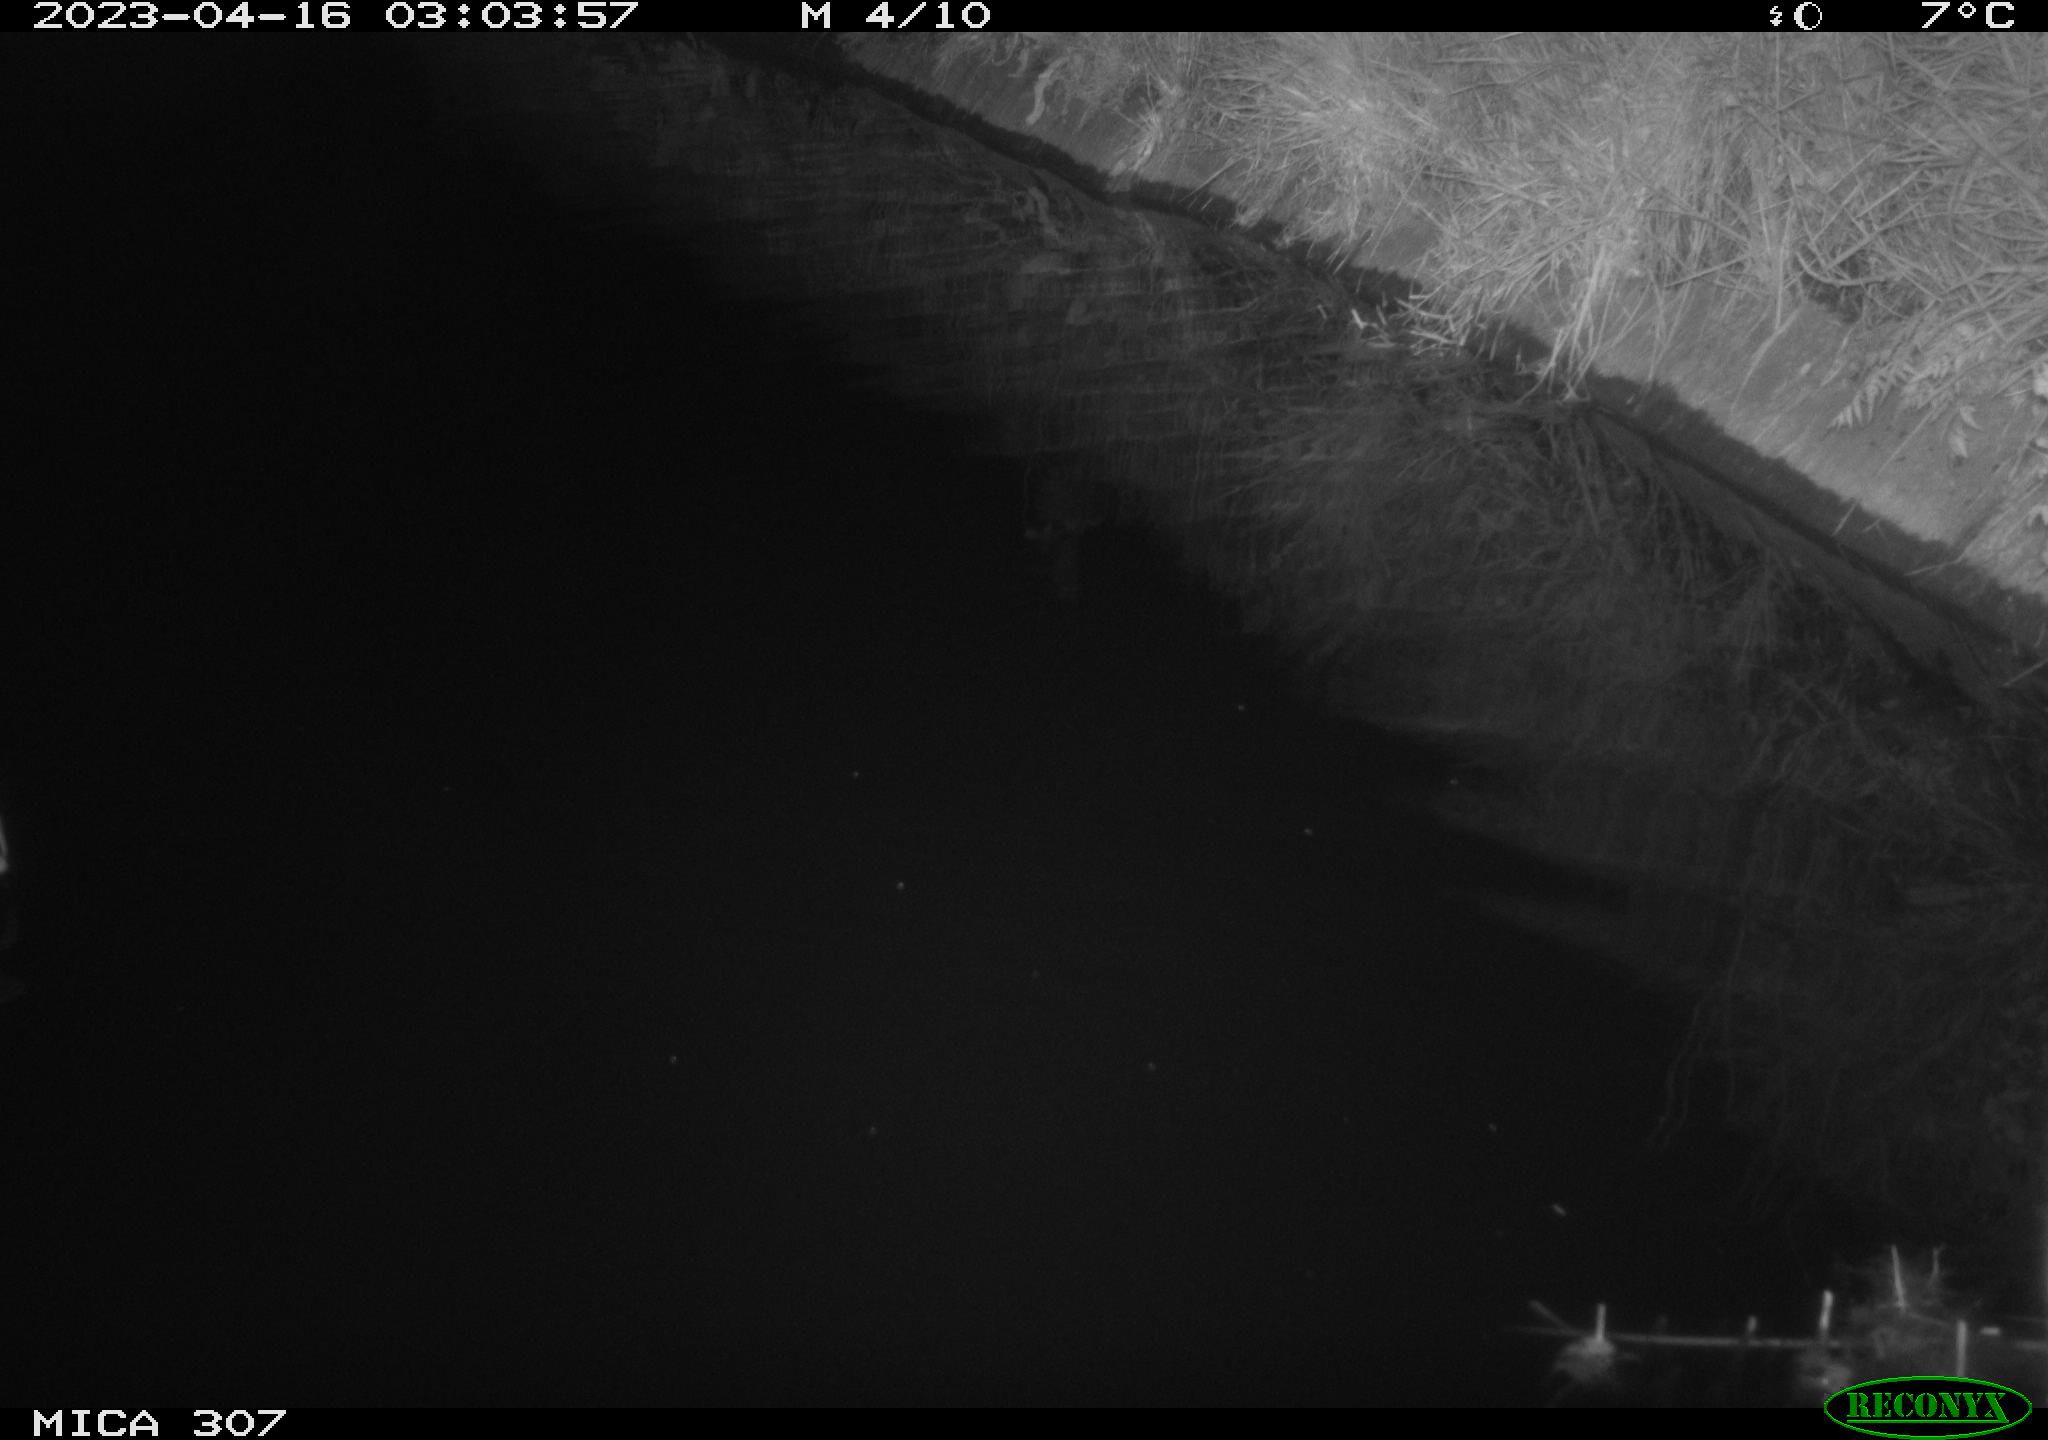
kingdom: Animalia
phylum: Chordata
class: Aves
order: Anseriformes
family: Anatidae
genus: Anas
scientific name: Anas
